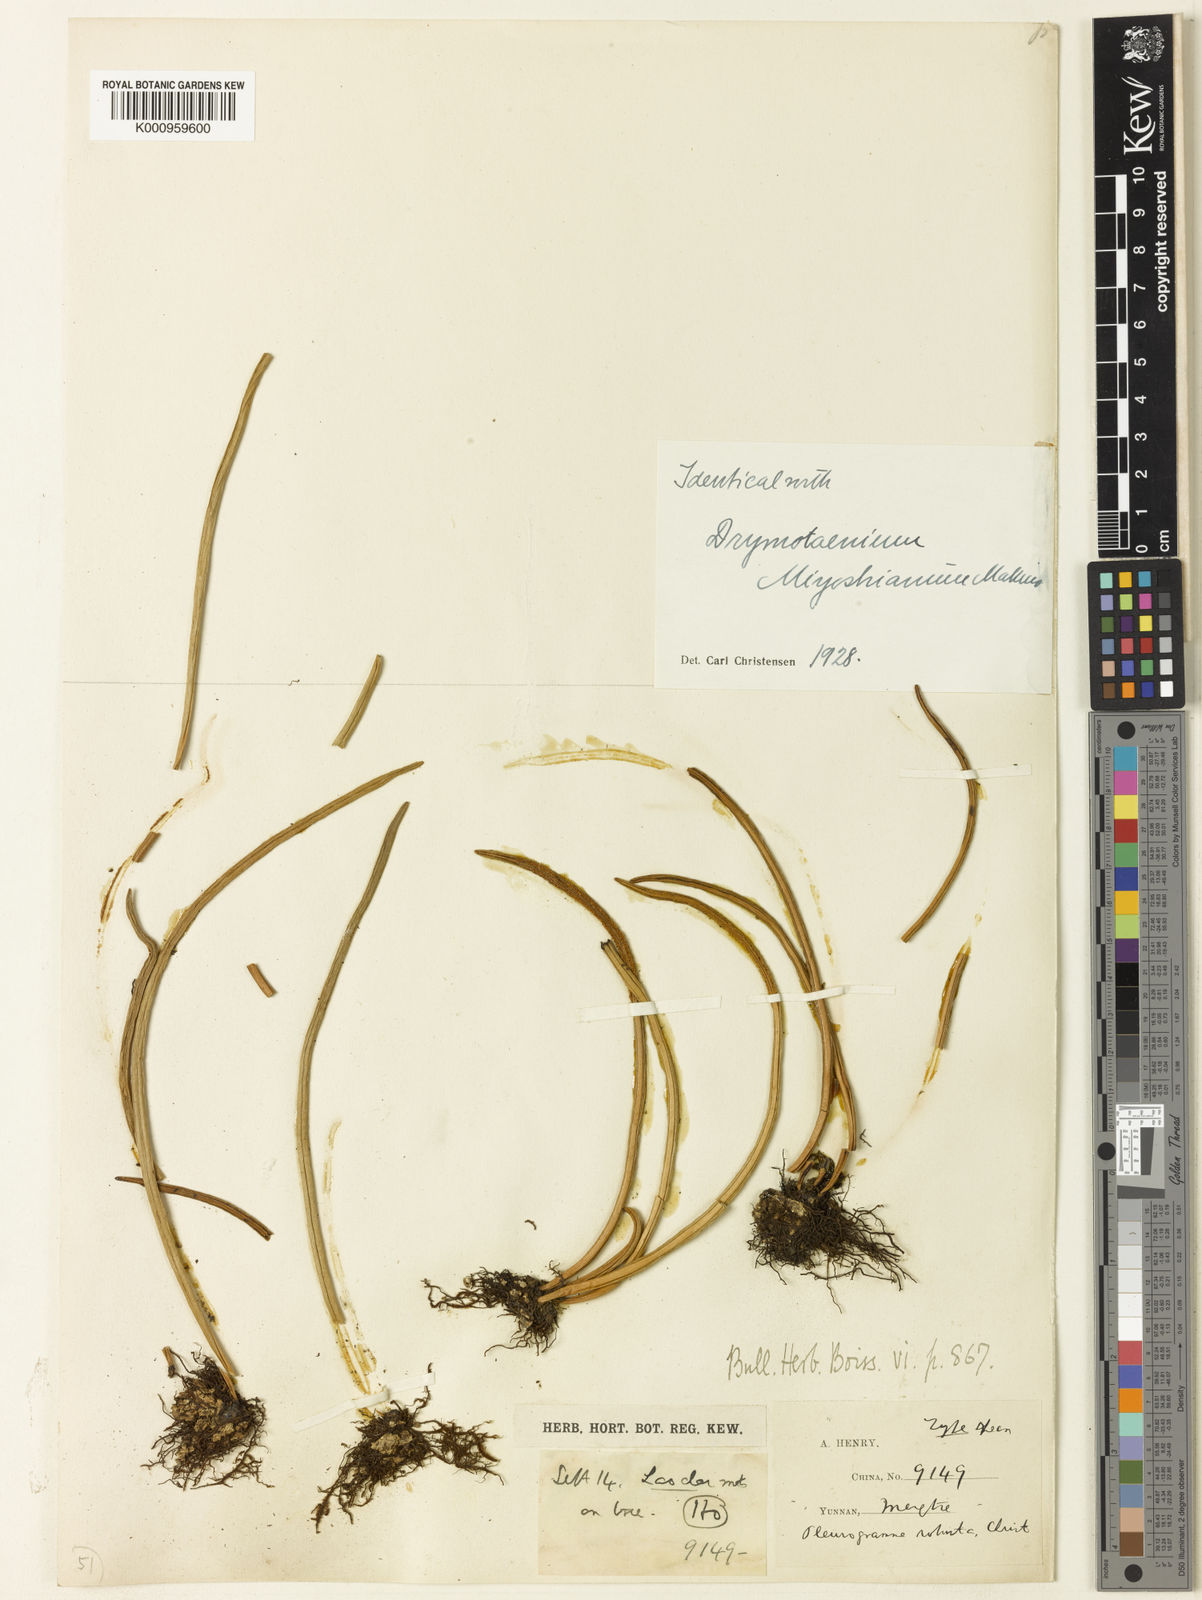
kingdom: Plantae
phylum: Tracheophyta
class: Polypodiopsida
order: Polypodiales
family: Polypodiaceae
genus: Lepisorus
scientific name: Lepisorus miyoshianus
